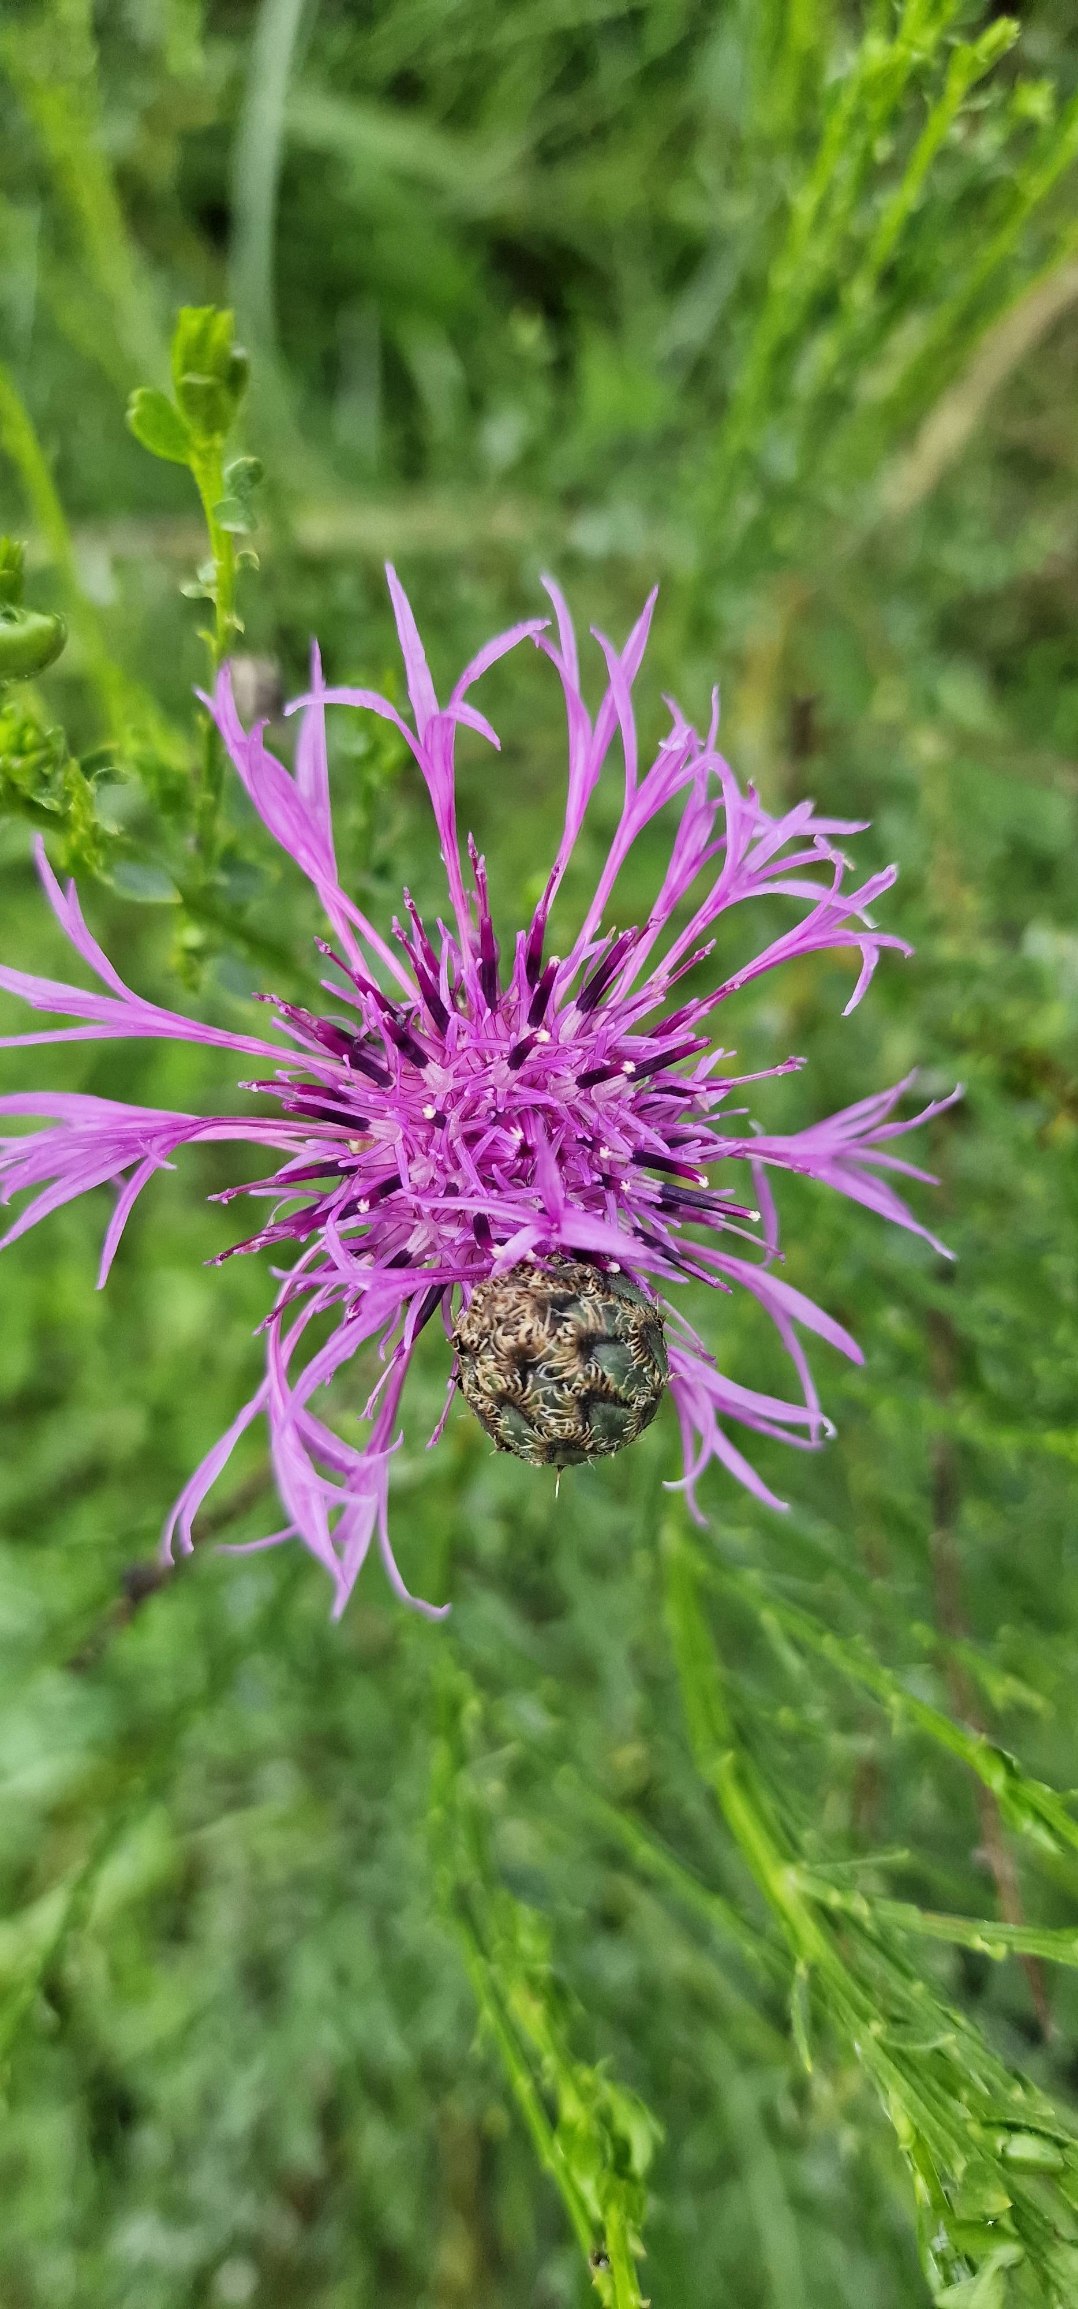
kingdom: Plantae
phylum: Tracheophyta
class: Magnoliopsida
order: Asterales
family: Asteraceae
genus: Centaurea
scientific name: Centaurea scabiosa
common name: Stor knopurt
